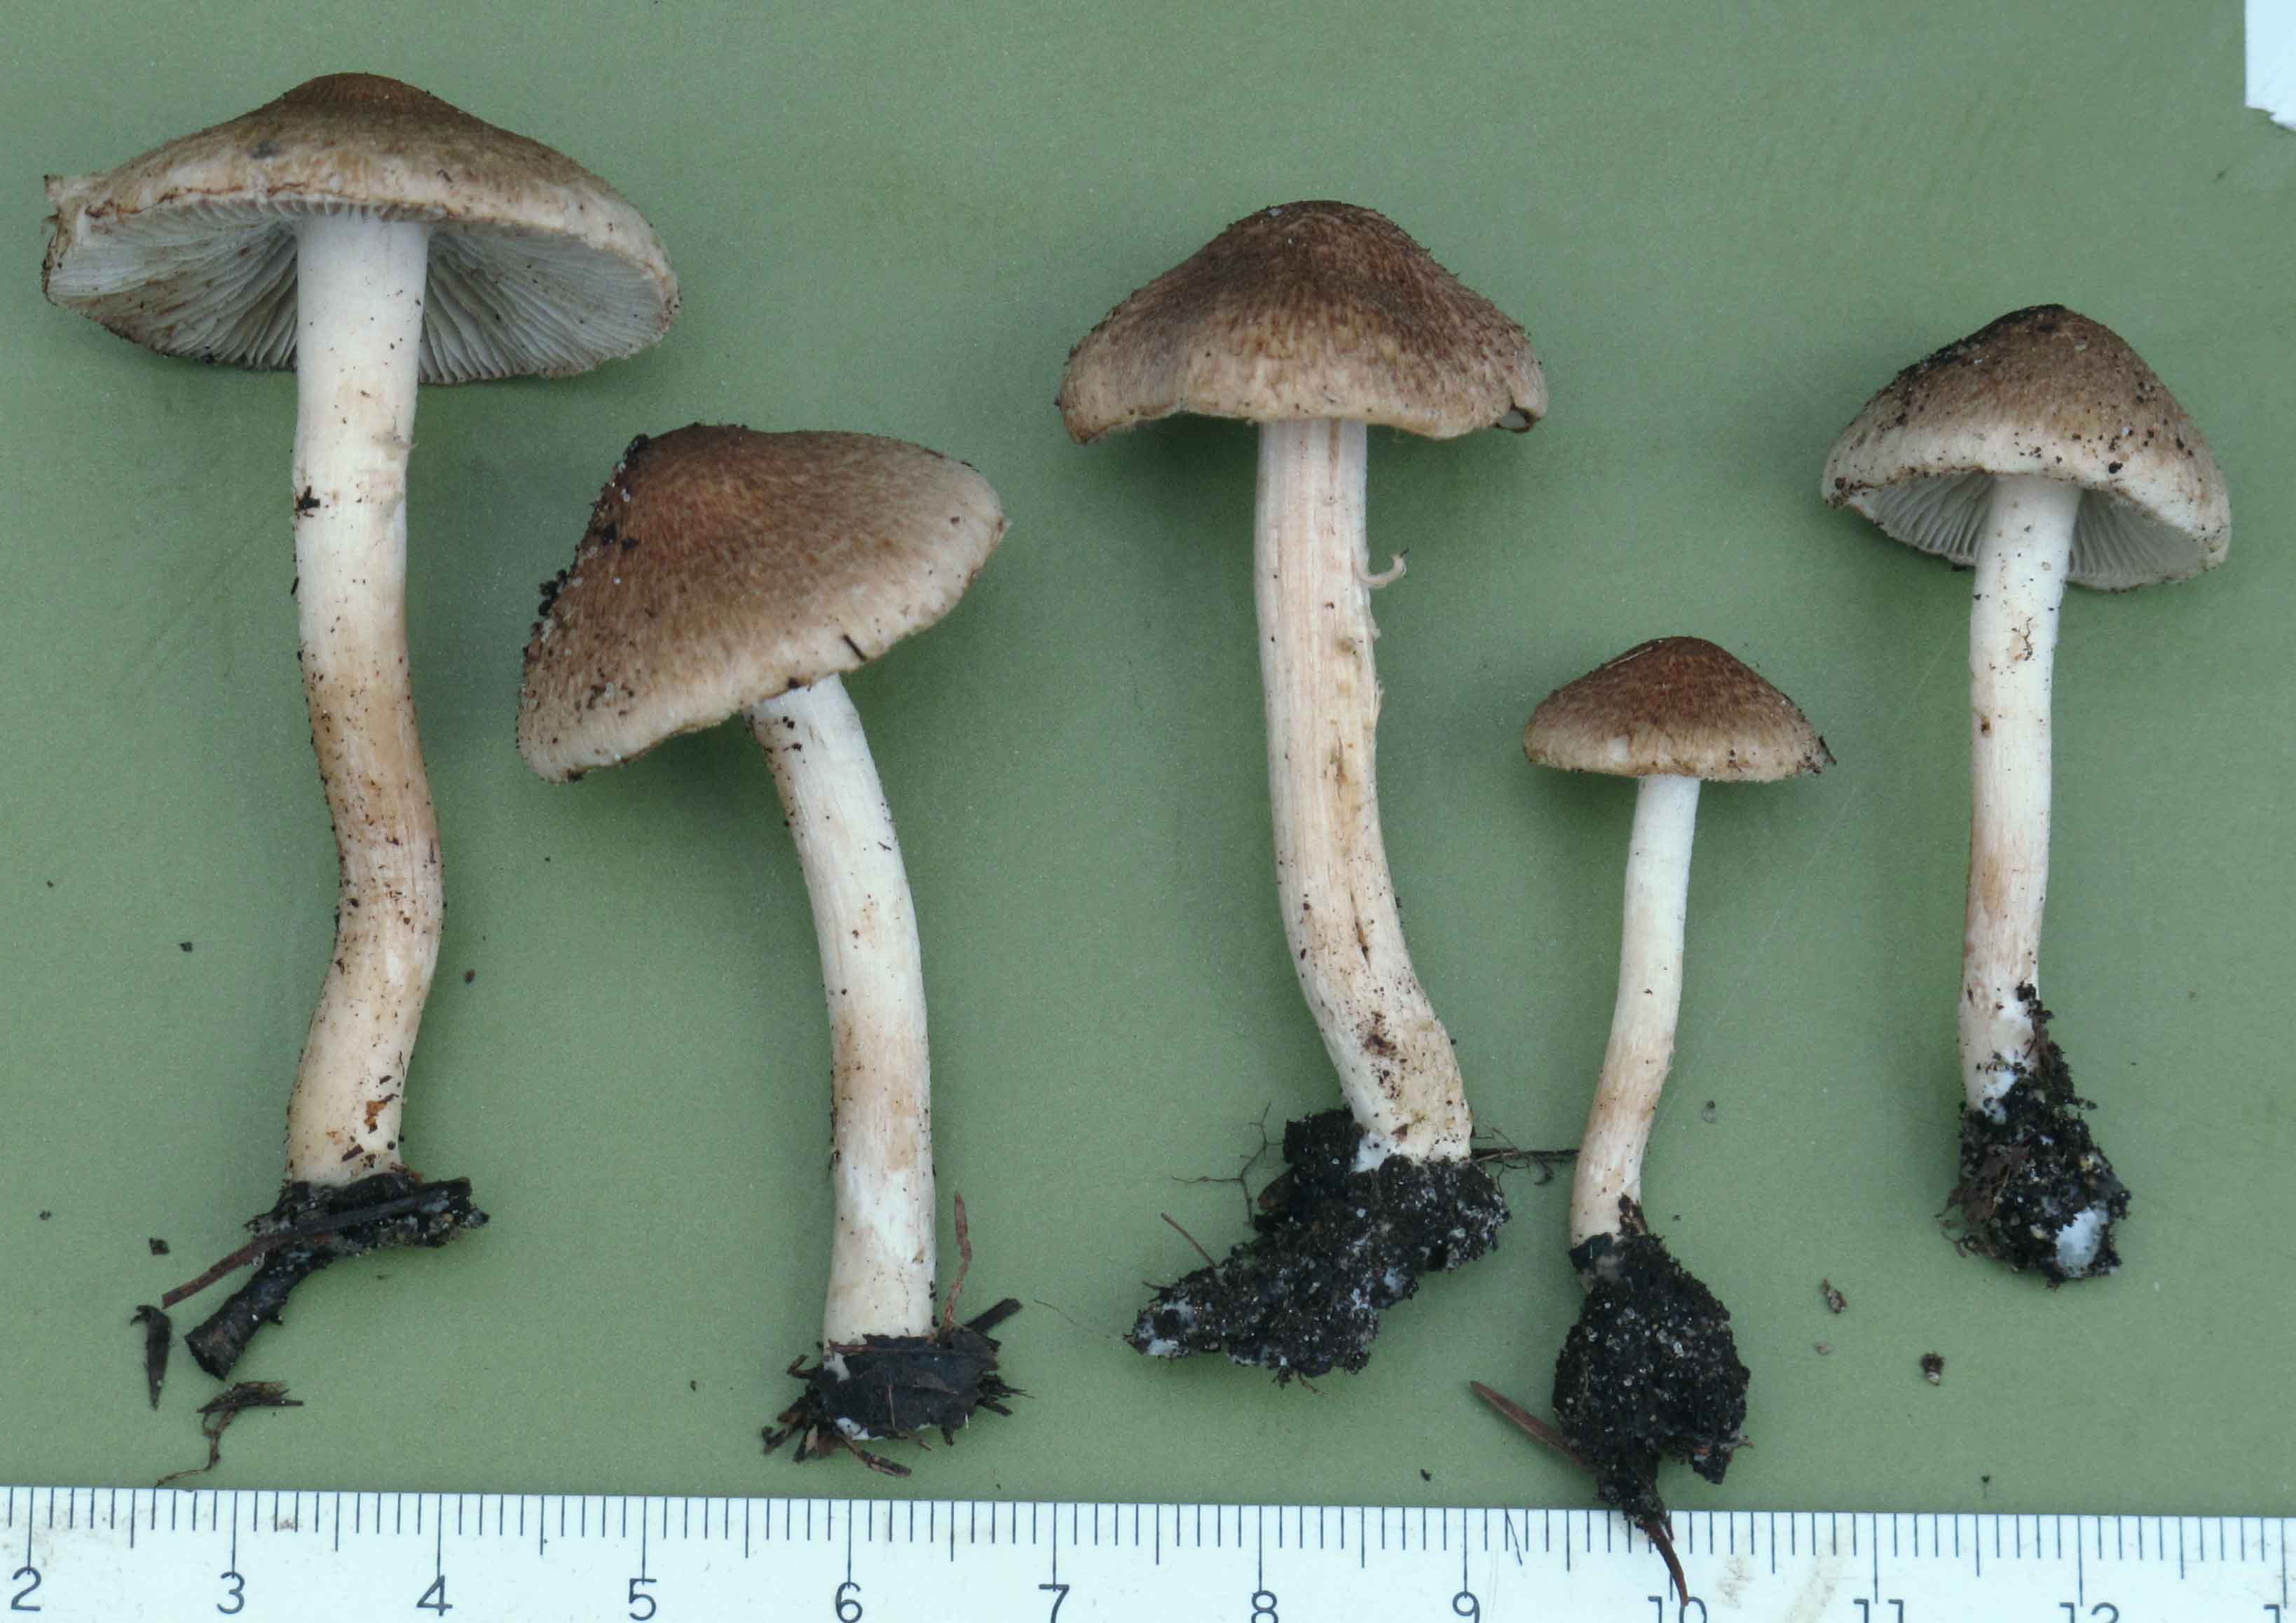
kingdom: Fungi
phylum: Basidiomycota
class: Agaricomycetes
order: Agaricales
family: Inocybaceae
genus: Inocybe
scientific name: Inocybe
